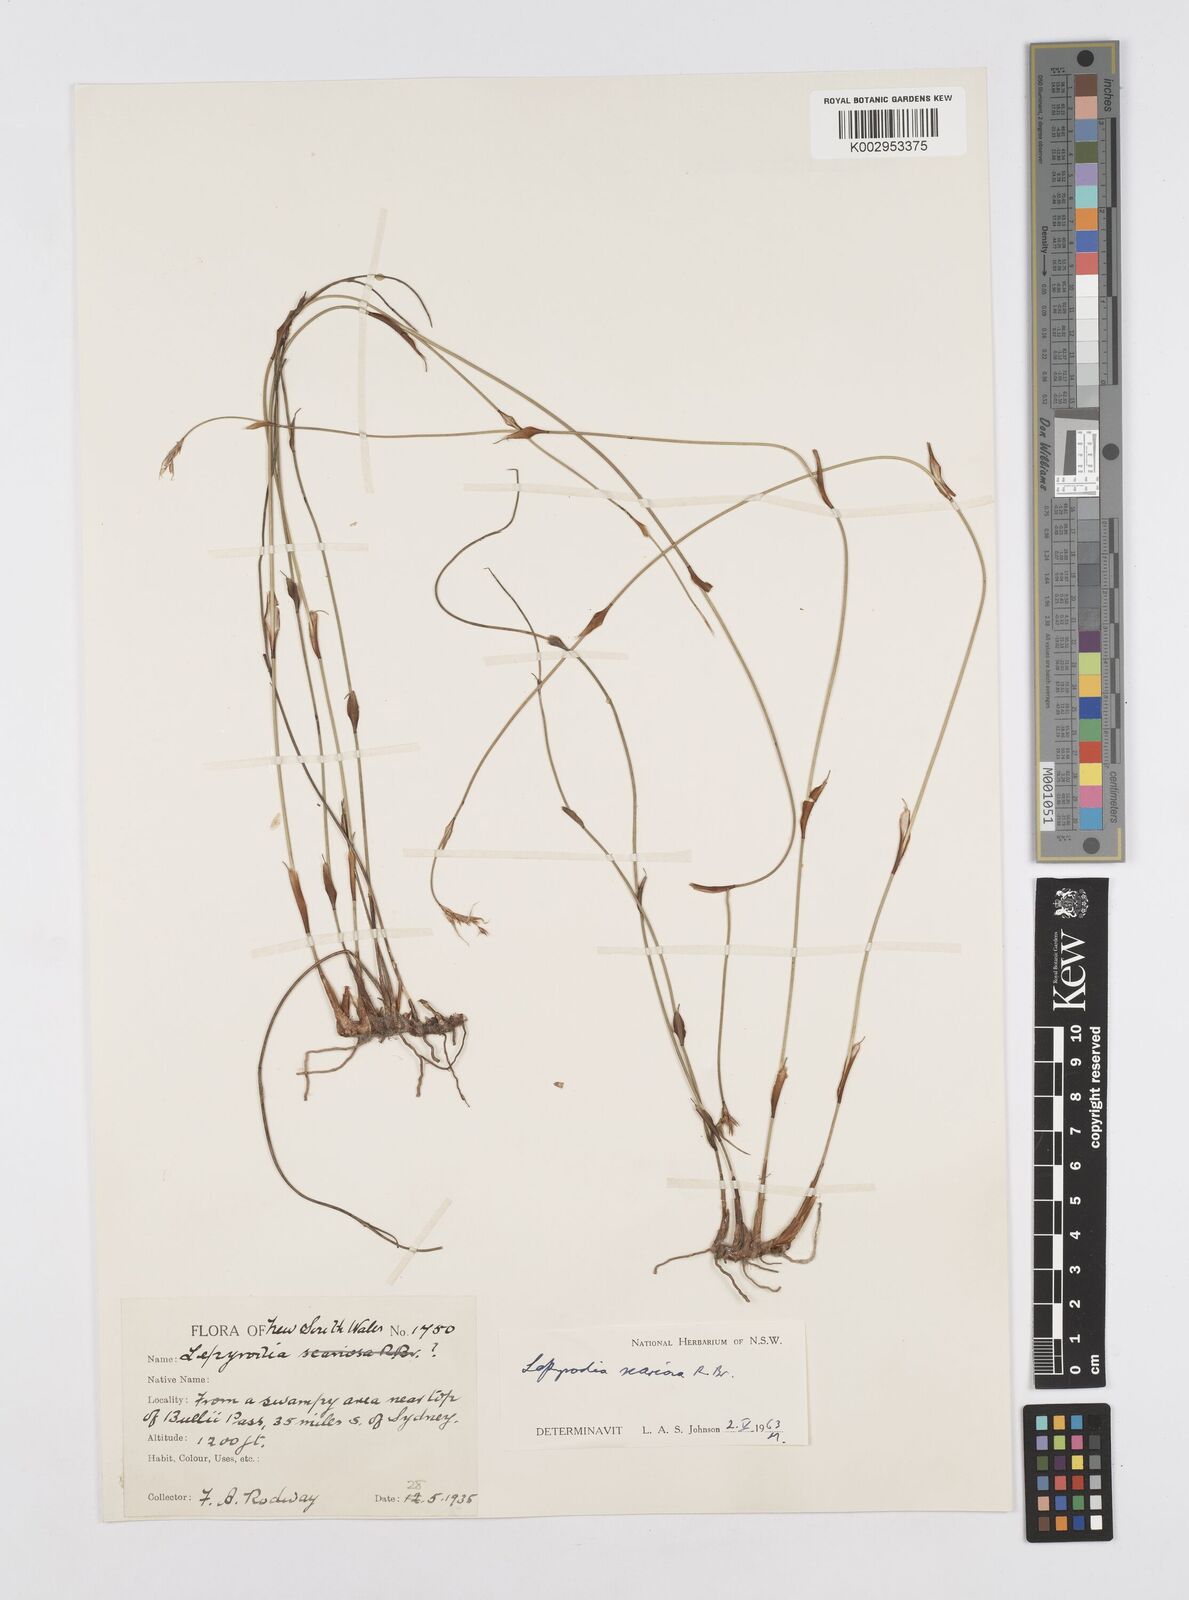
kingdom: Plantae
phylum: Tracheophyta
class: Liliopsida
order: Poales
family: Restionaceae
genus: Lepyrodia
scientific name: Lepyrodia scariosa
